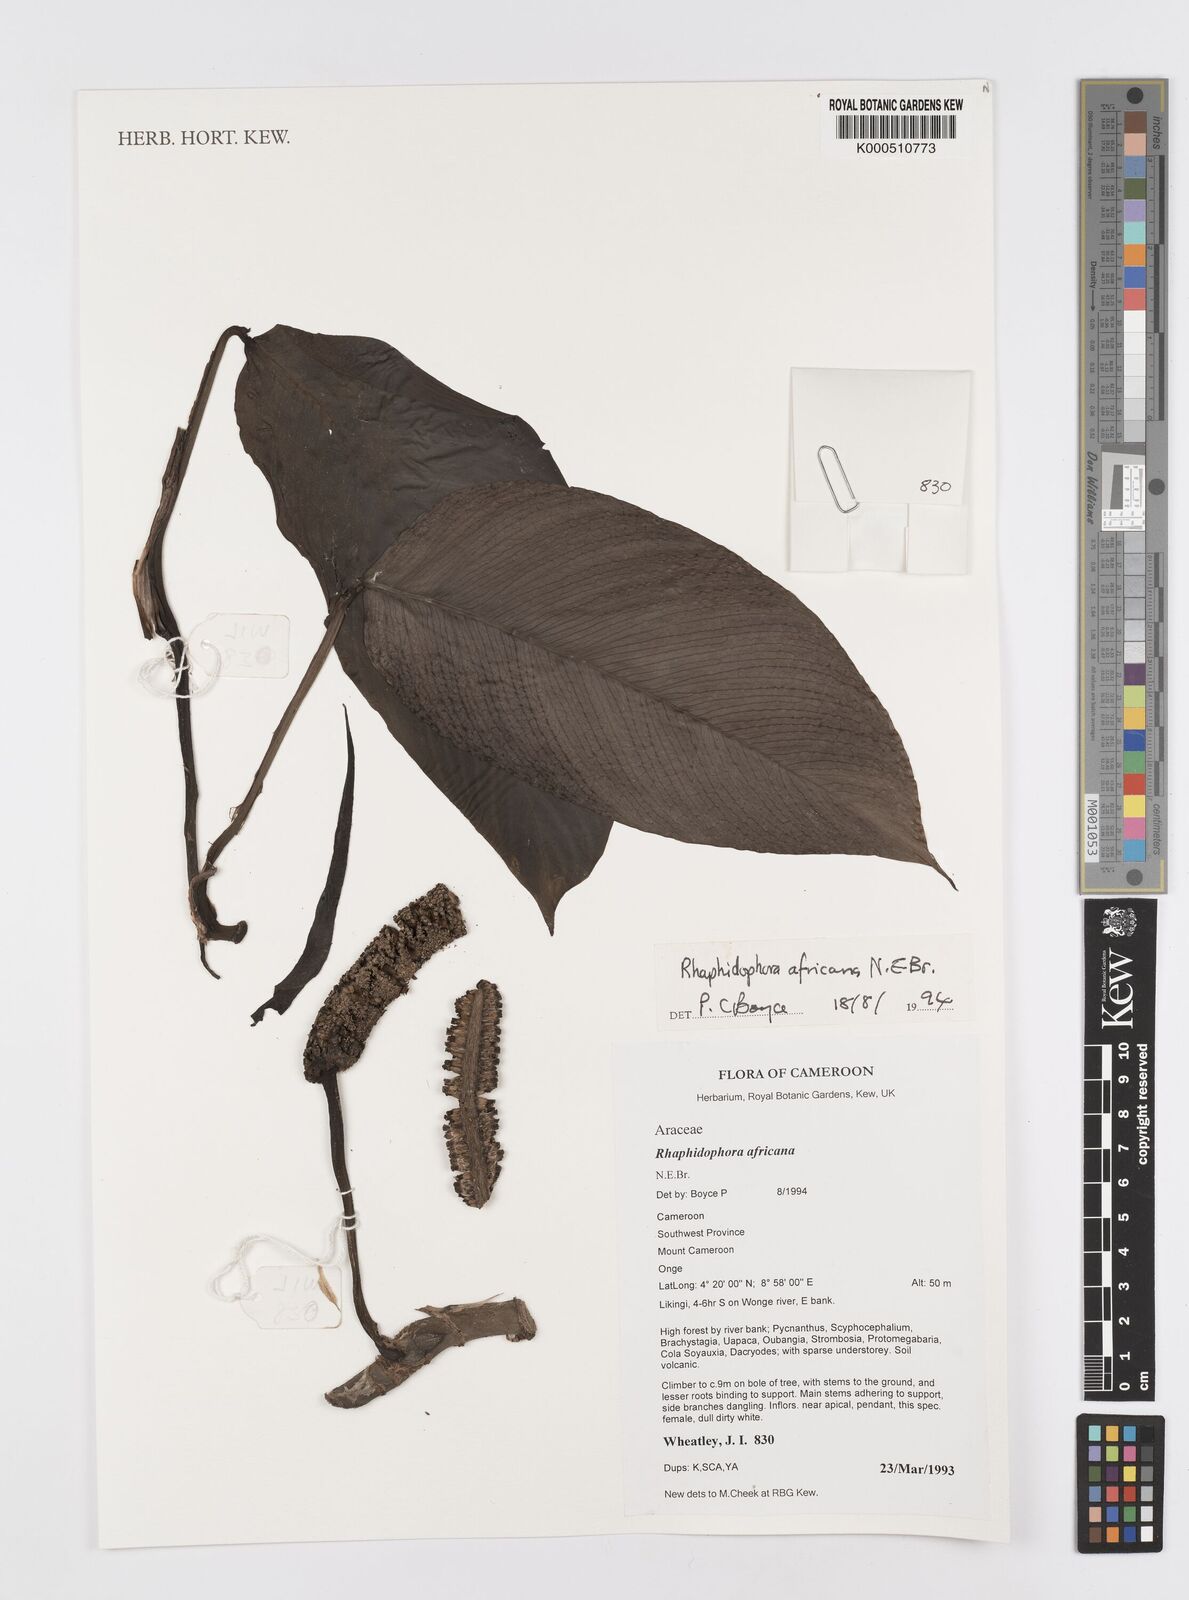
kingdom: Plantae
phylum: Tracheophyta
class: Liliopsida
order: Alismatales
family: Araceae
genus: Rhaphidophora
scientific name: Rhaphidophora africana
